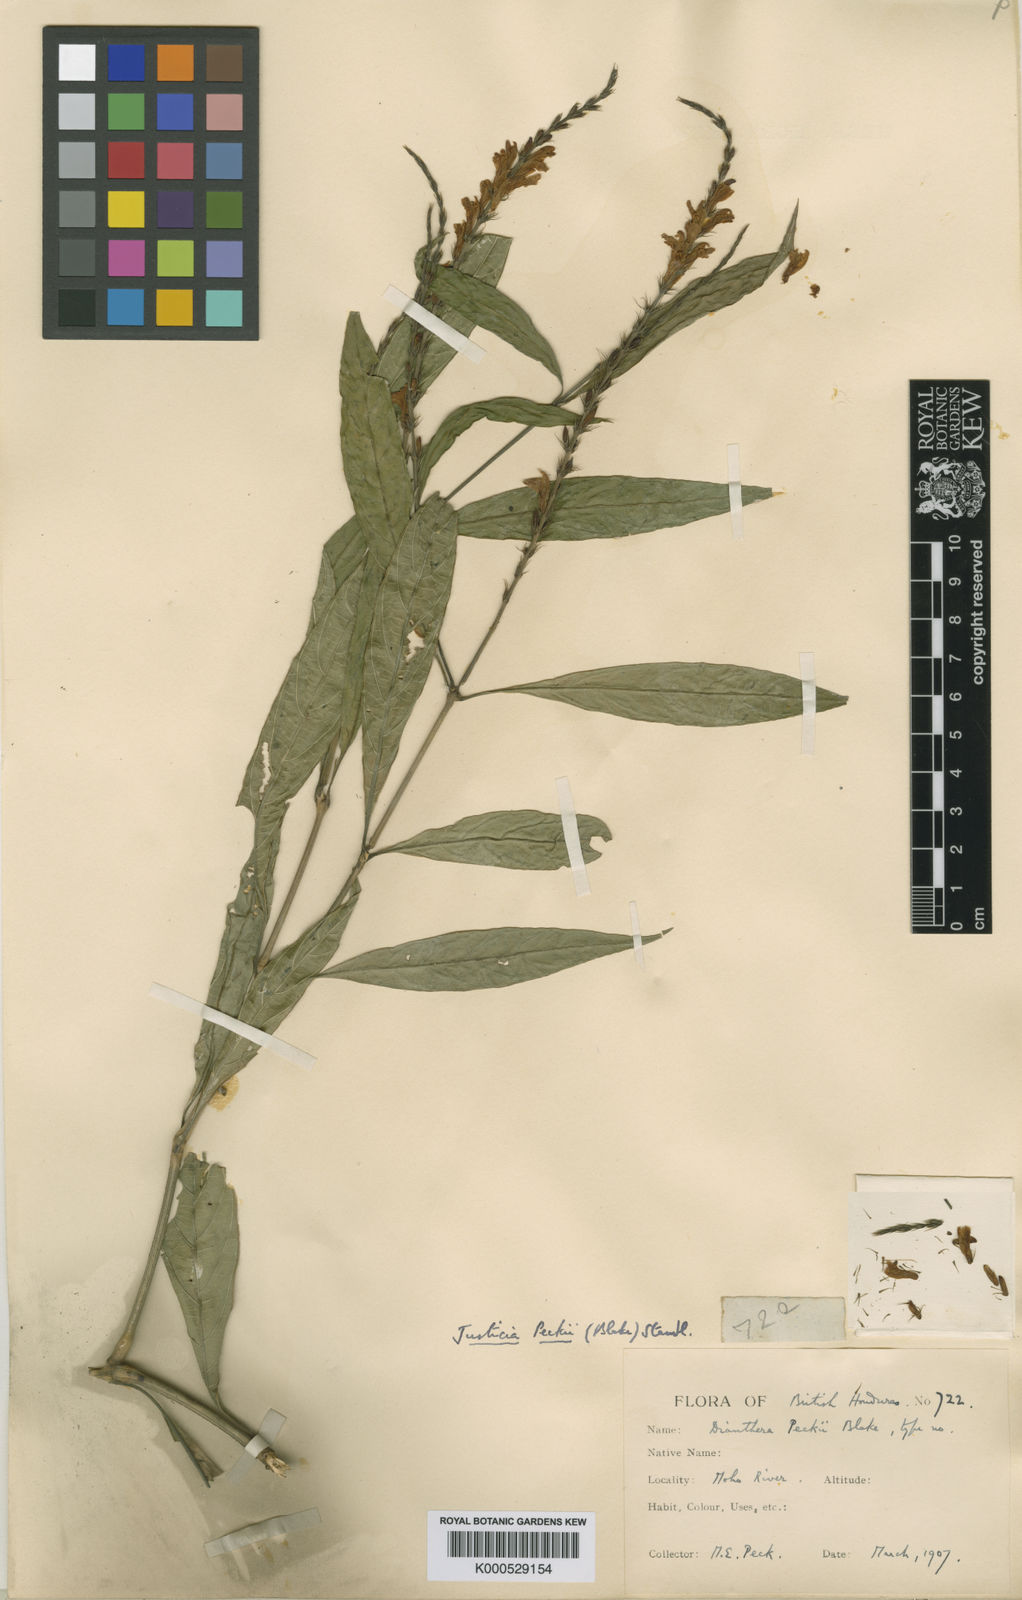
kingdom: Plantae
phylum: Tracheophyta
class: Magnoliopsida
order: Lamiales
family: Acanthaceae
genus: Dianthera
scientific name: Dianthera breviflora
